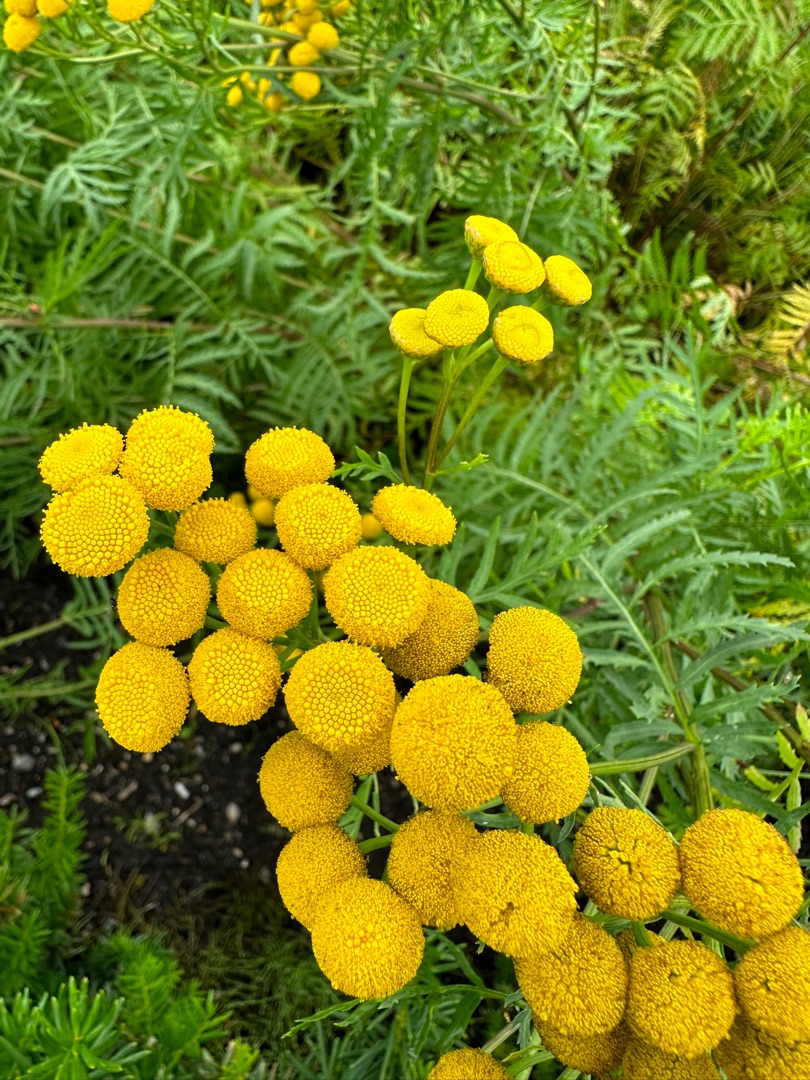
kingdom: Plantae
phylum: Tracheophyta
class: Magnoliopsida
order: Asterales
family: Asteraceae
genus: Tanacetum
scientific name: Tanacetum vulgare
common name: Rejnfan
